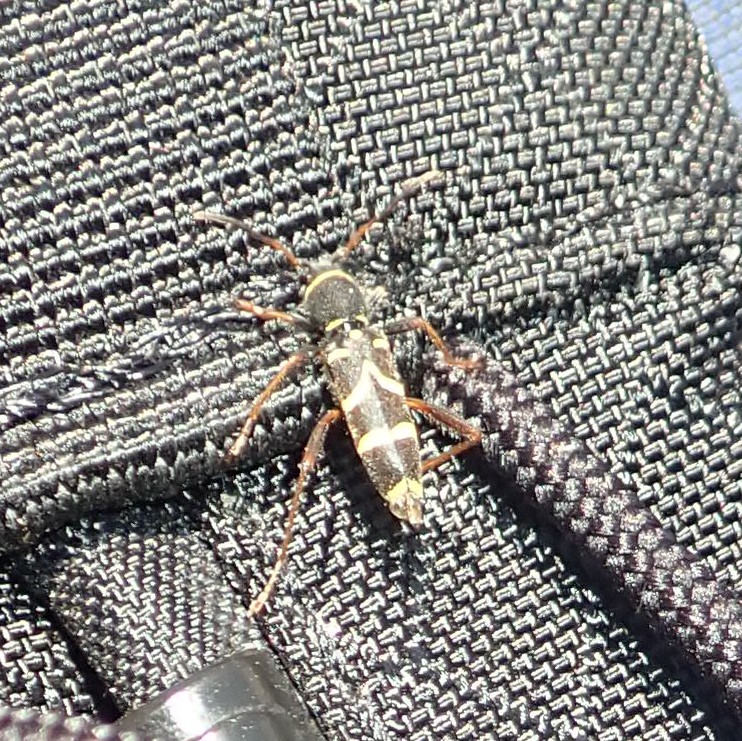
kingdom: Animalia
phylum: Arthropoda
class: Insecta
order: Coleoptera
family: Cerambycidae
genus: Clytus
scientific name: Clytus arietis
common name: Lille hvepsebuk
